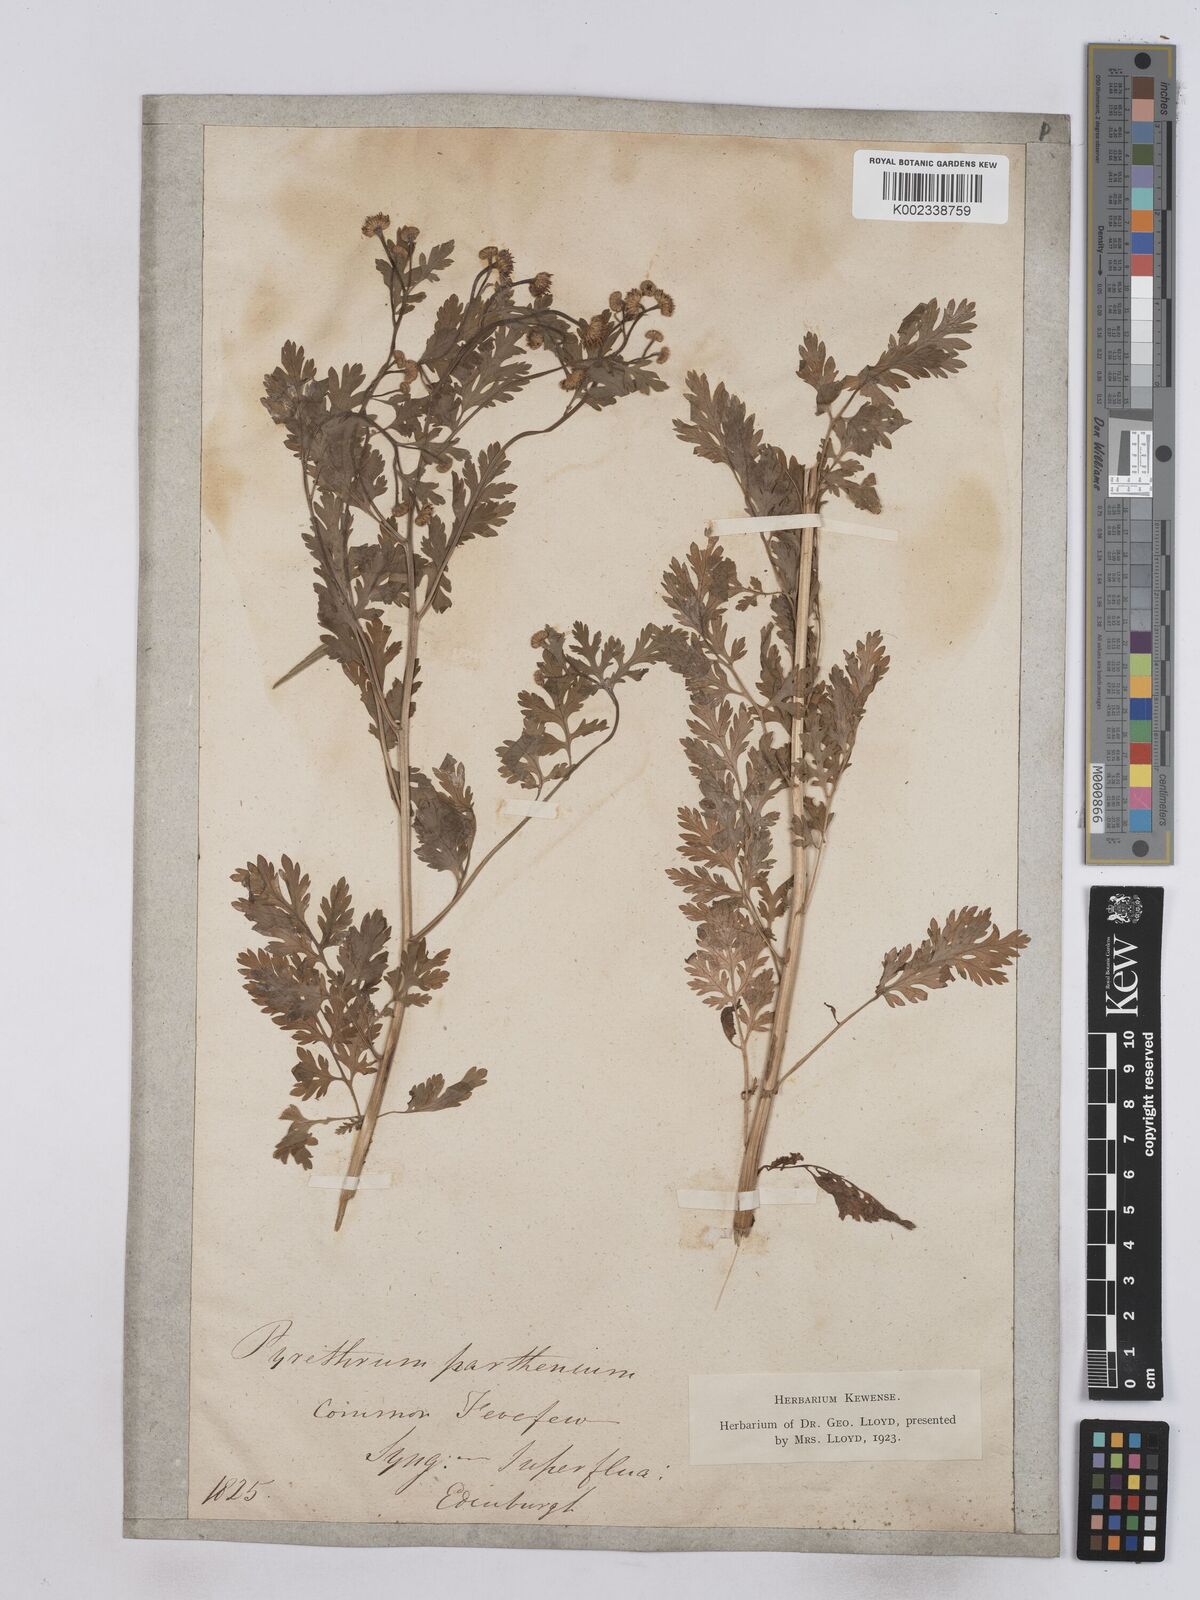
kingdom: Plantae
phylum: Tracheophyta
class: Magnoliopsida
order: Asterales
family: Asteraceae
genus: Tanacetum
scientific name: Tanacetum parthenium
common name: Feverfew
